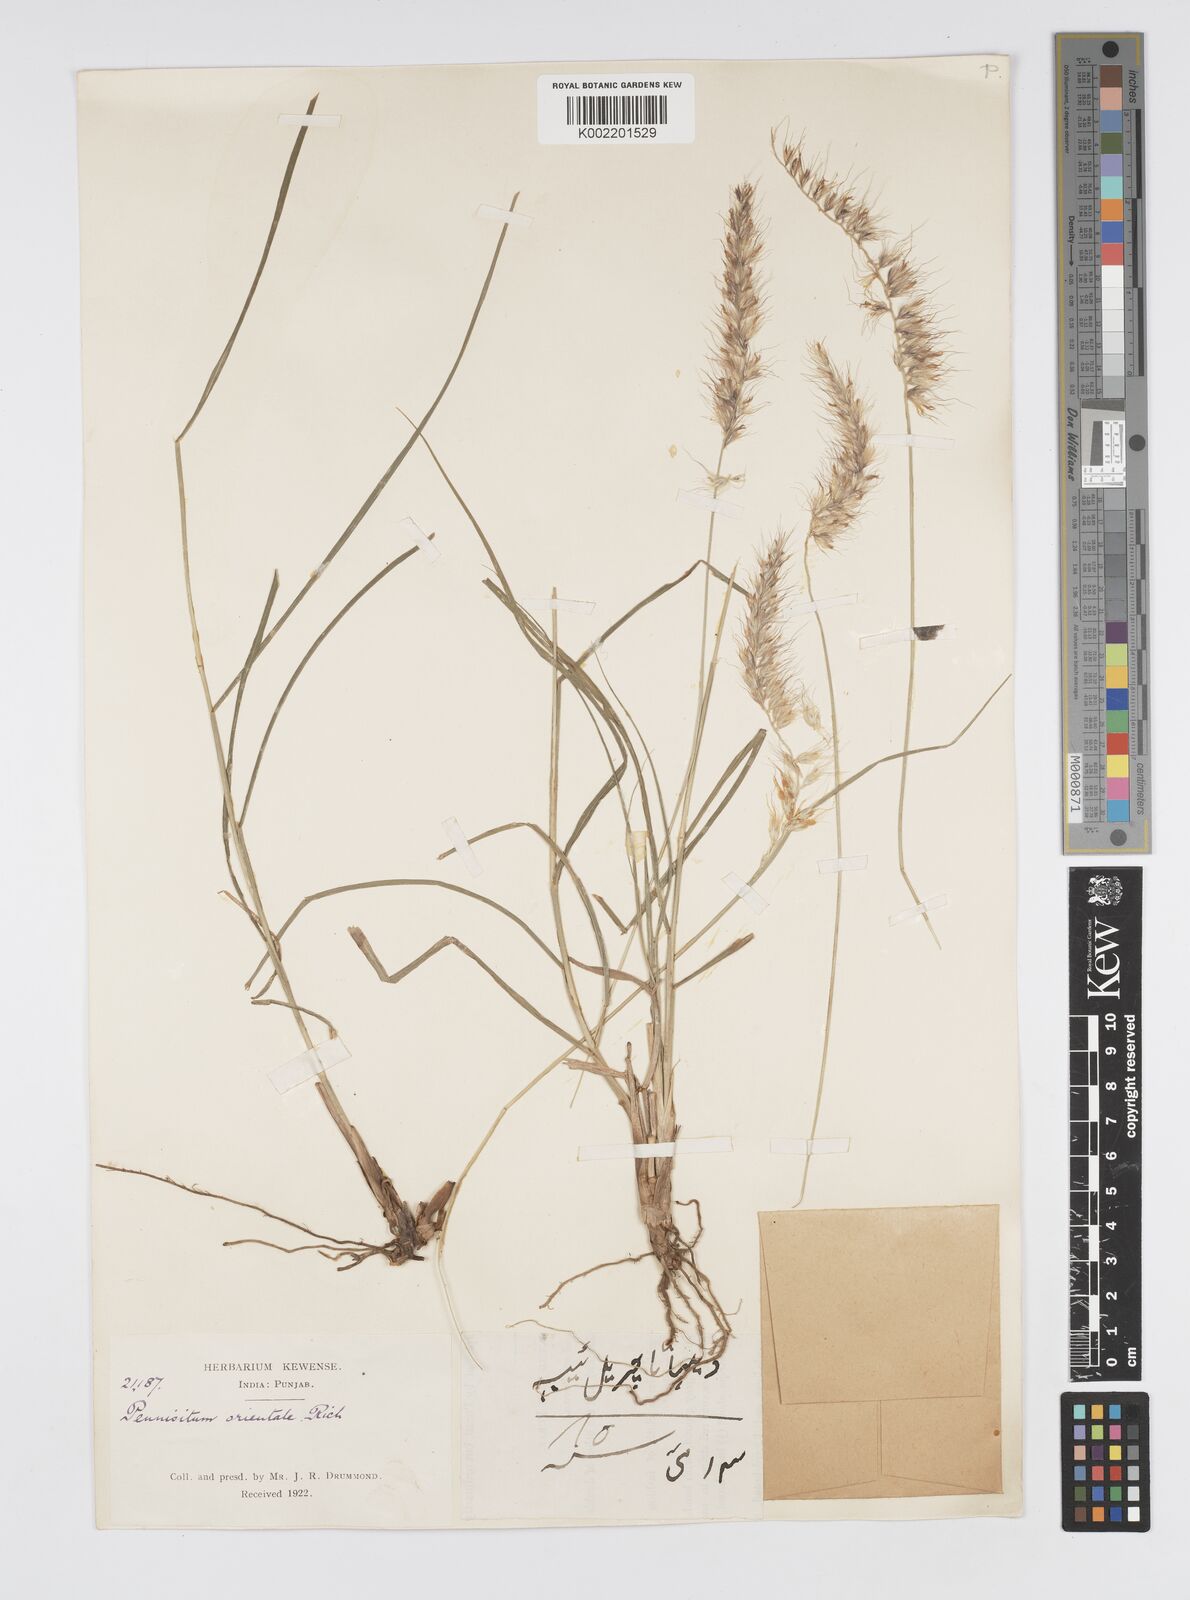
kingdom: Plantae
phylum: Tracheophyta
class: Liliopsida
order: Poales
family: Poaceae
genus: Cenchrus
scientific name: Cenchrus orientalis
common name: Oriental fountain grass
